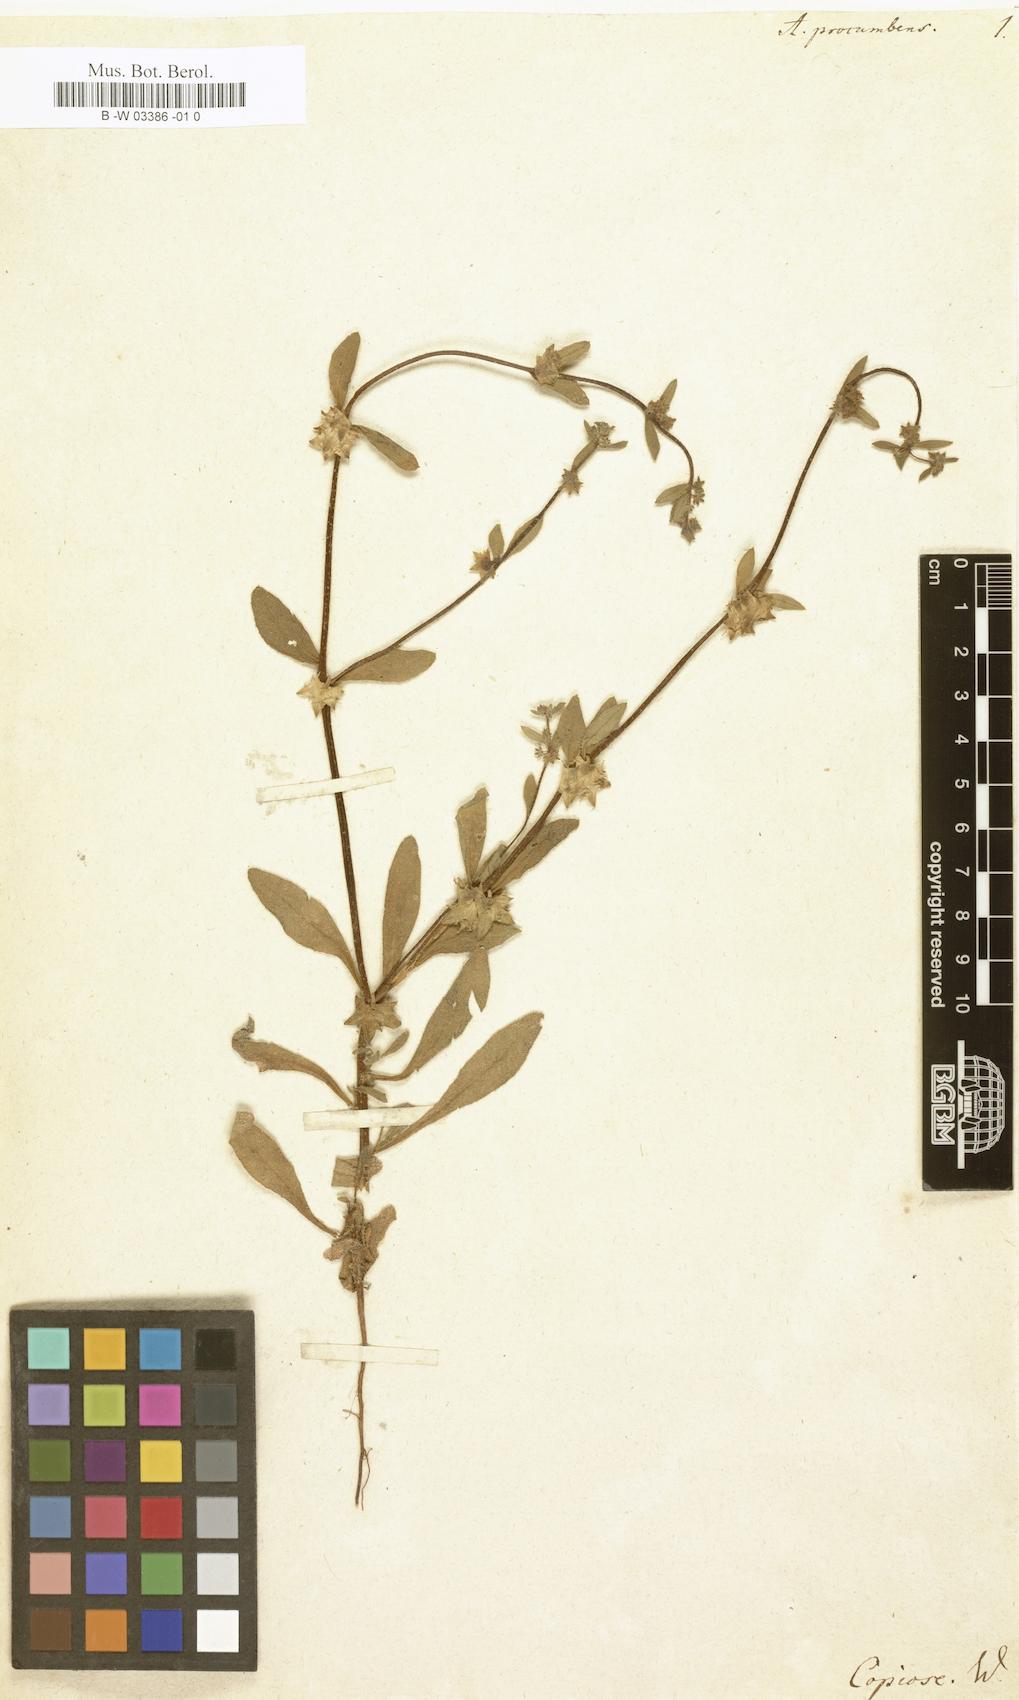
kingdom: Plantae
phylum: Tracheophyta
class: Magnoliopsida
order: Boraginales
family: Boraginaceae
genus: Asperugo
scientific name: Asperugo procumbens
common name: Madwort
